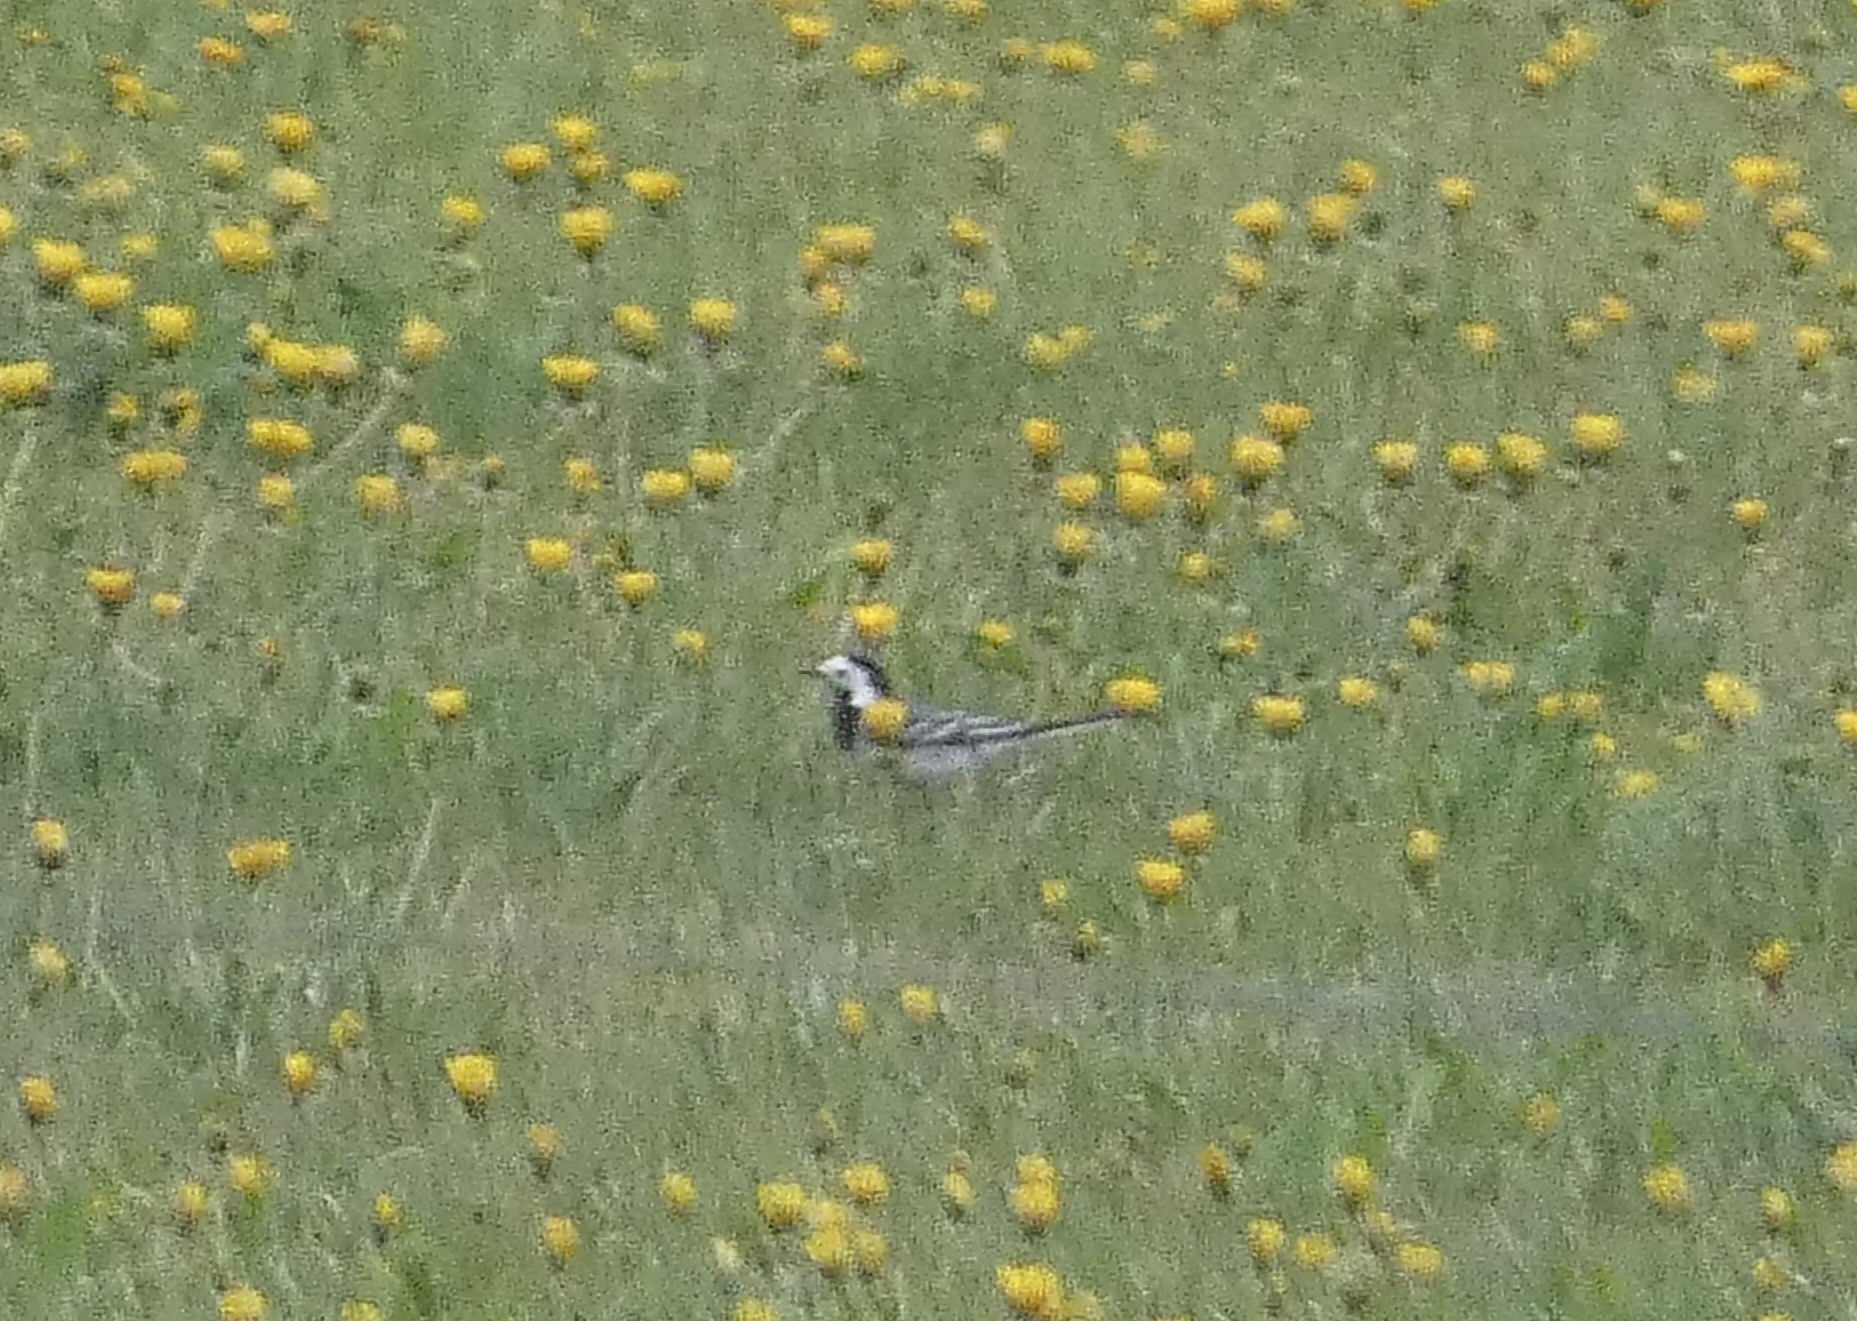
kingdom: Animalia
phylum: Chordata
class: Aves
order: Passeriformes
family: Motacillidae
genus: Motacilla
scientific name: Motacilla alba
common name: Hvid vipstjert
